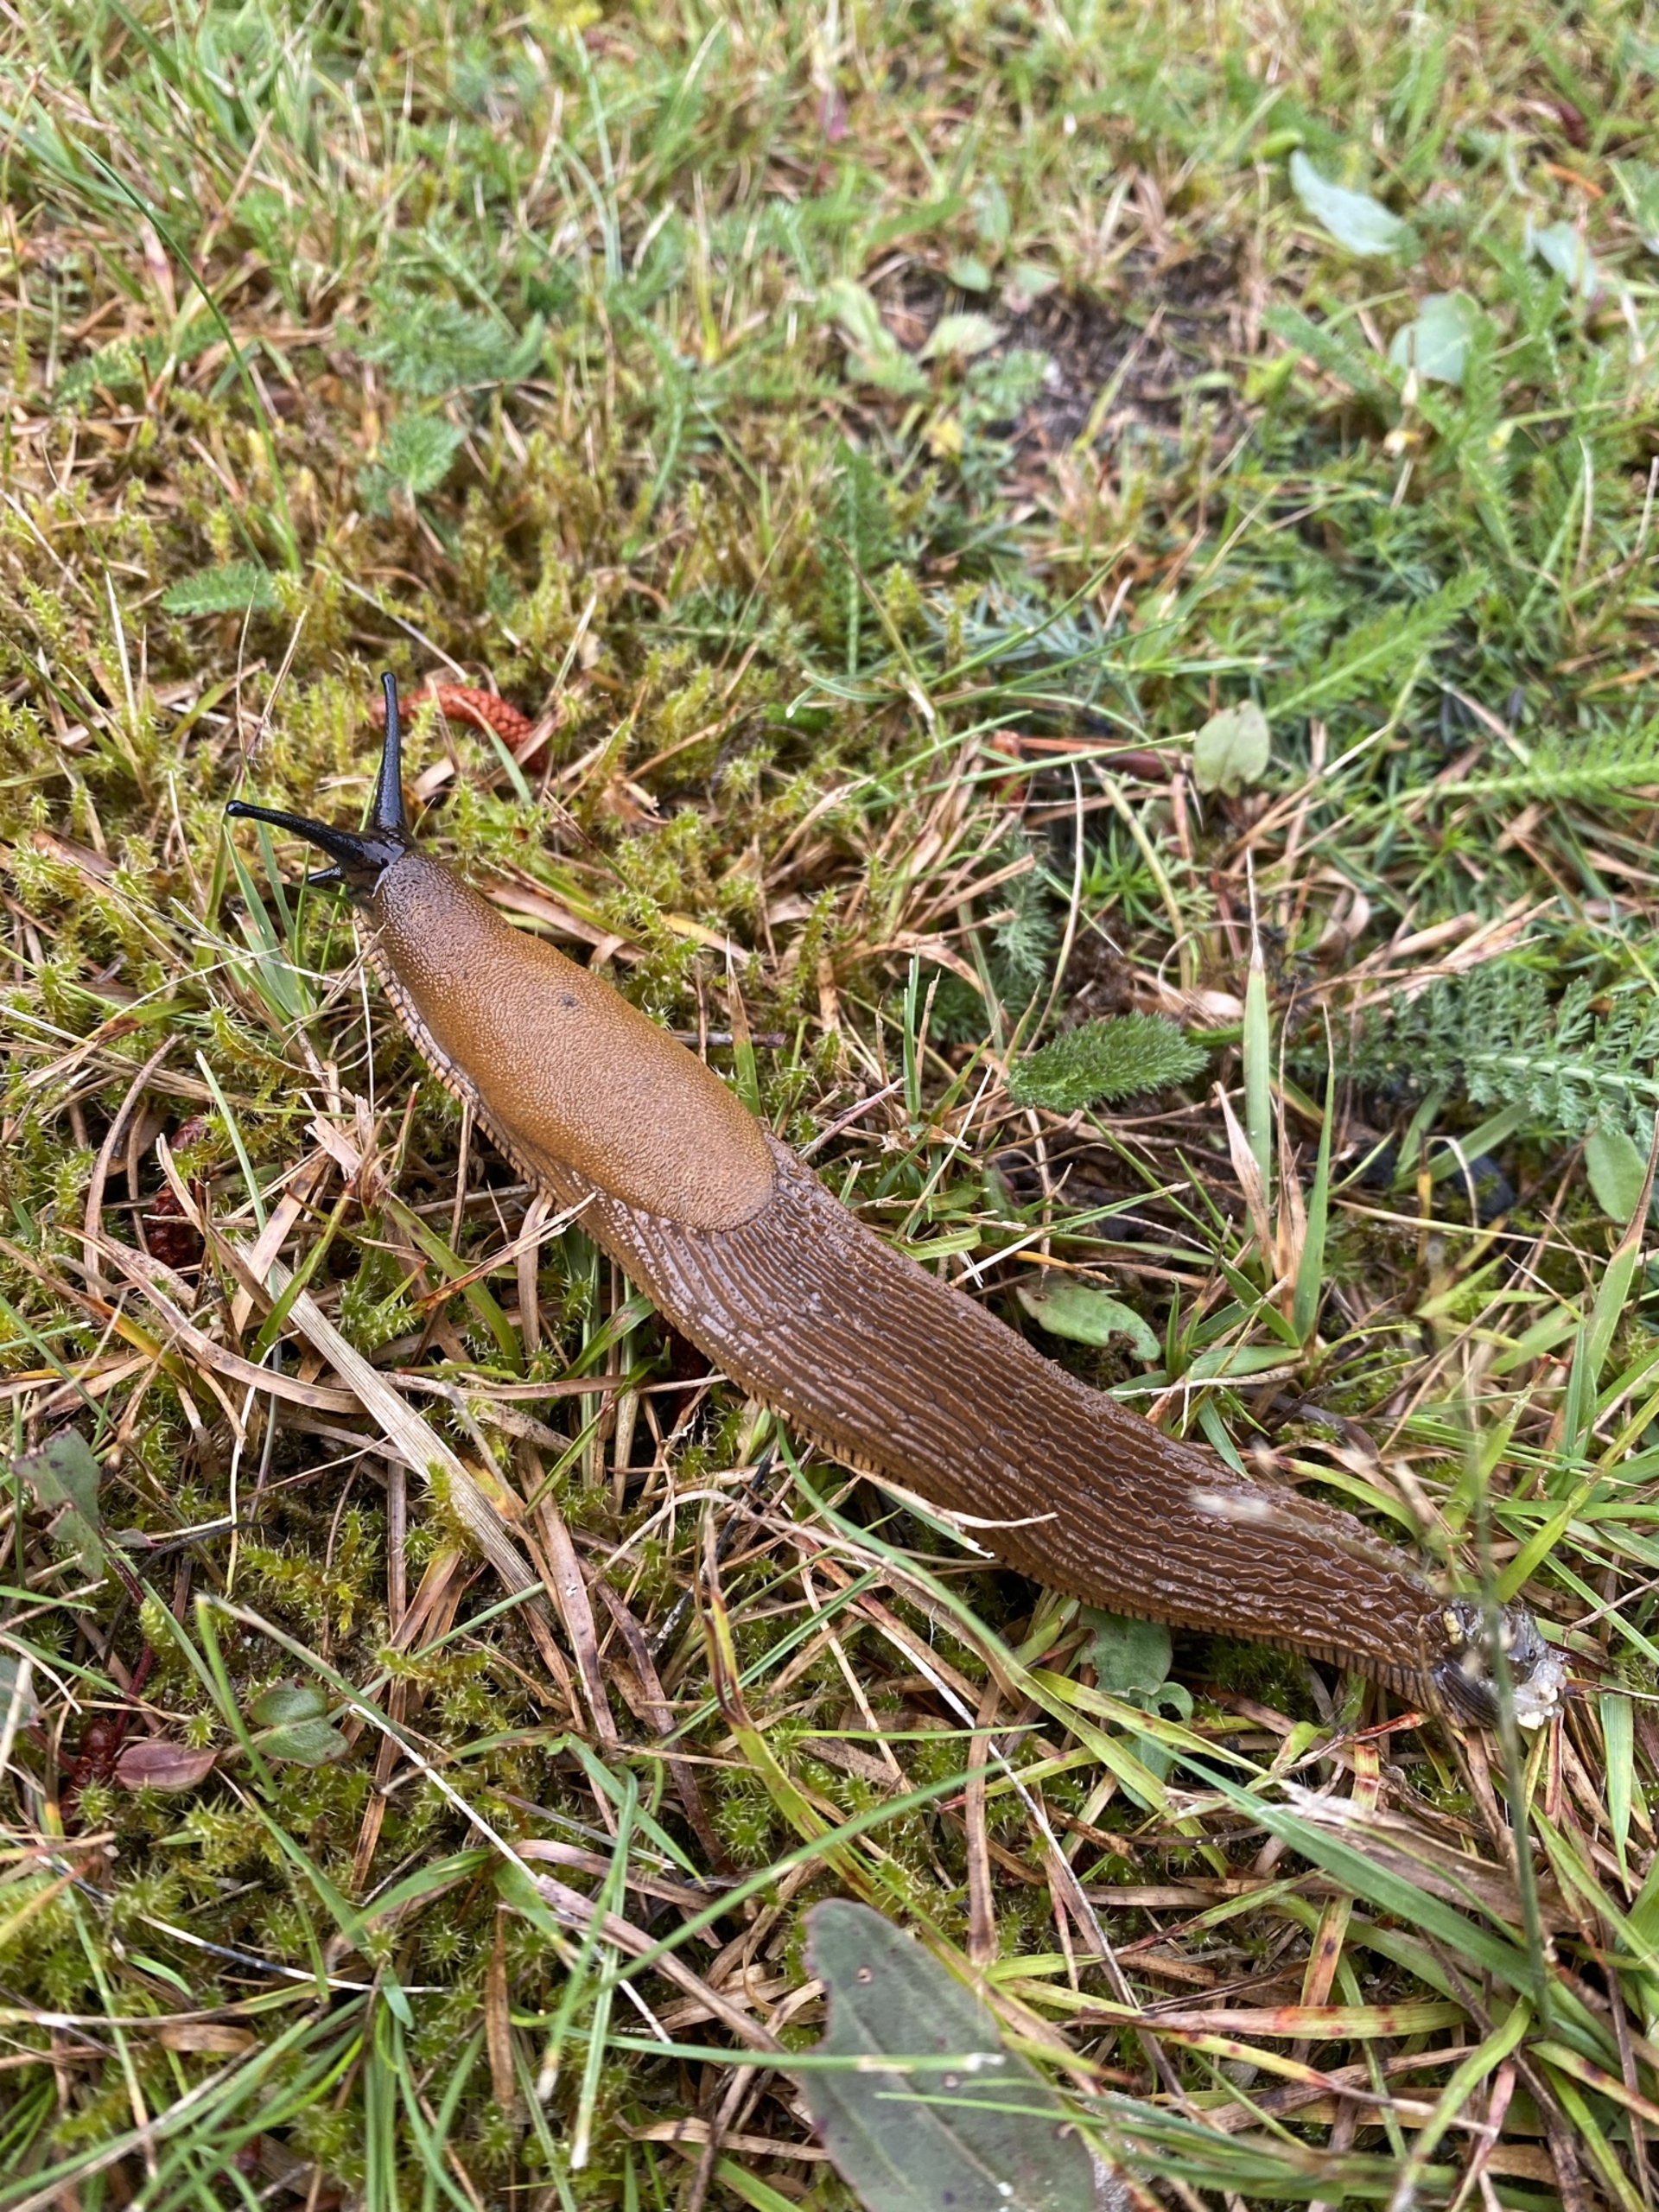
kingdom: Animalia
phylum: Mollusca
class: Gastropoda
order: Stylommatophora
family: Arionidae
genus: Arion
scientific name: Arion vulgaris
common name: Iberisk skovsnegl
